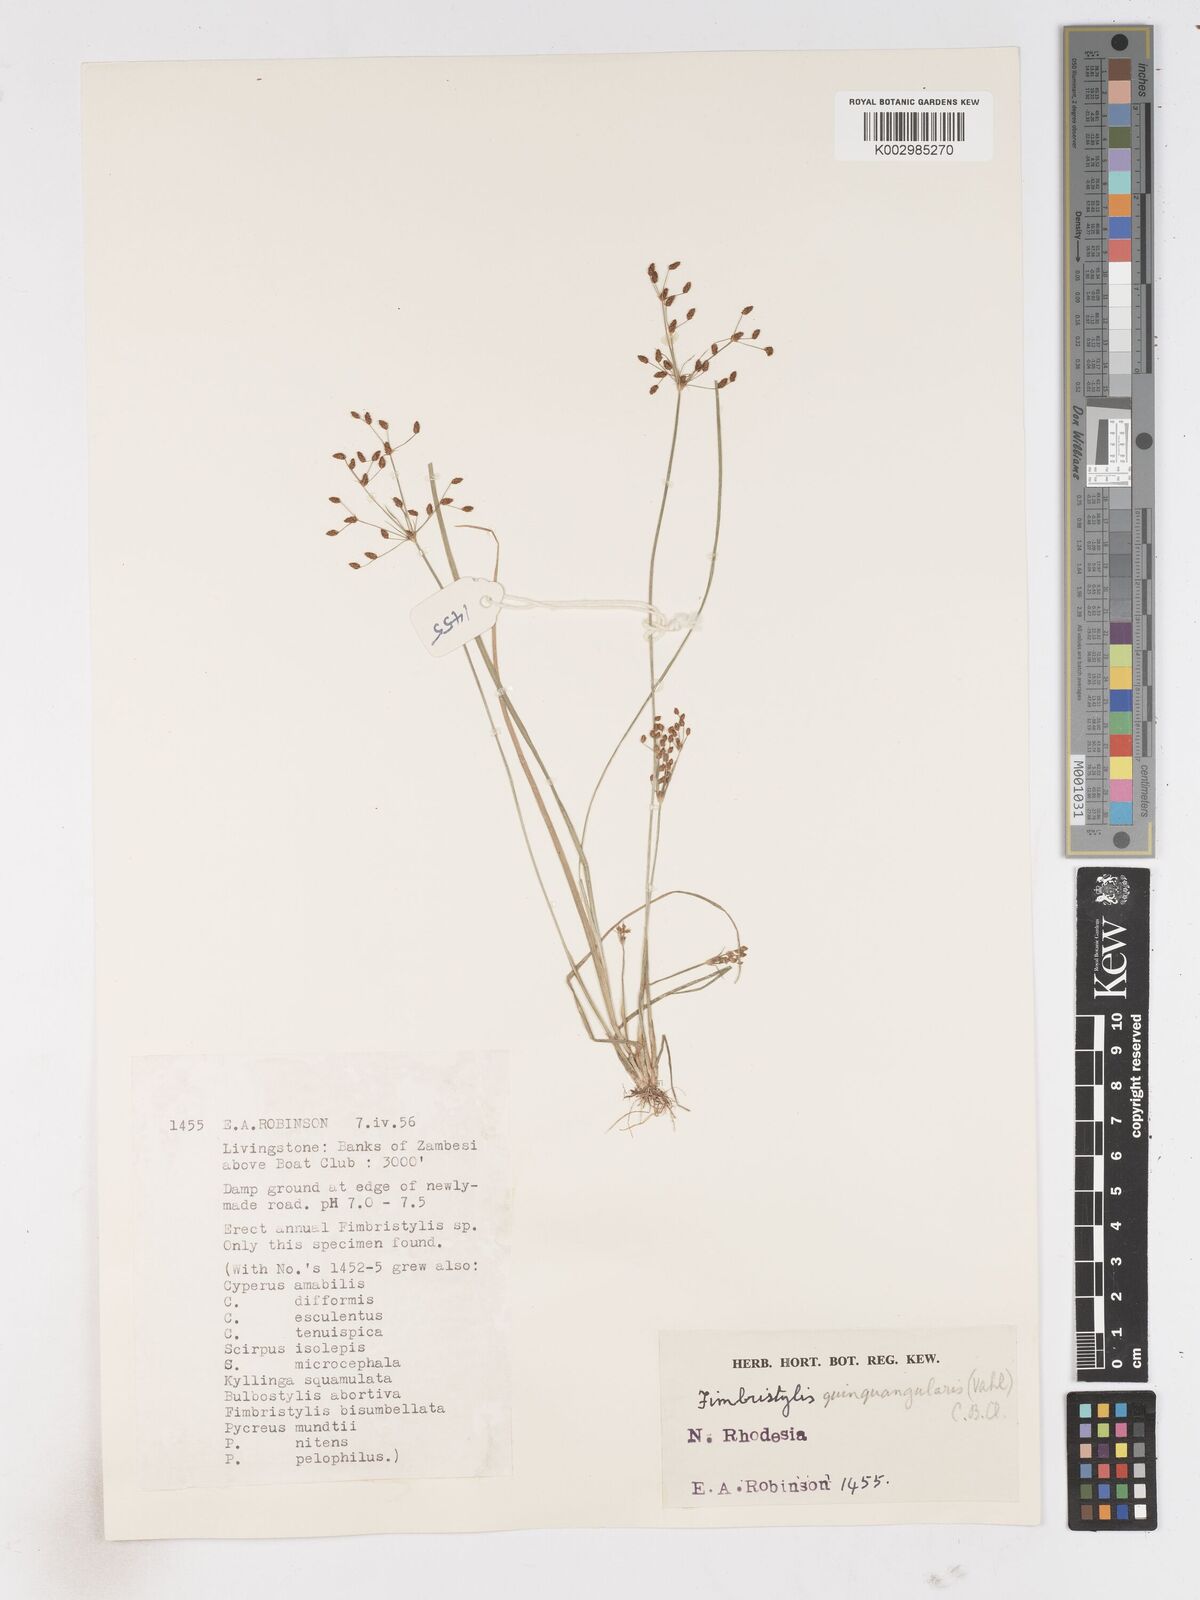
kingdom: Plantae
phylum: Tracheophyta
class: Liliopsida
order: Poales
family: Cyperaceae
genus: Fimbristylis
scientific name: Fimbristylis quinquangularis
